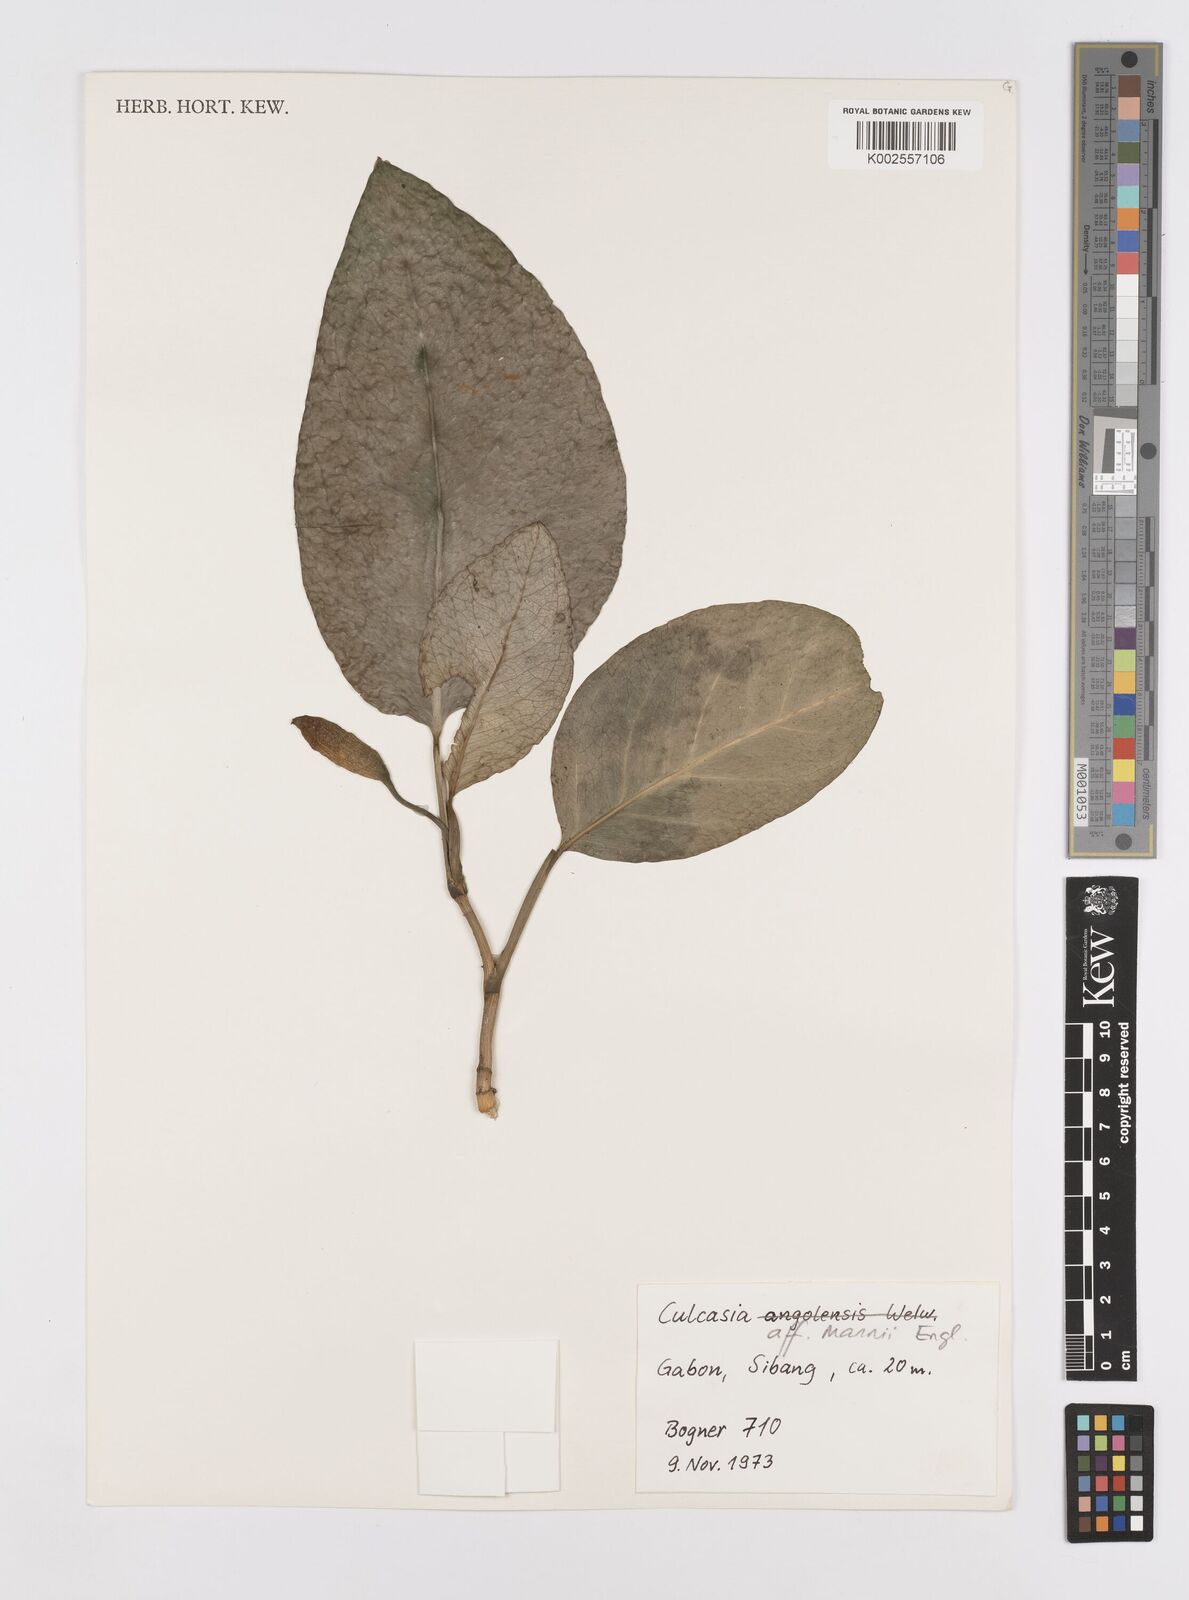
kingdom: Plantae
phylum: Tracheophyta
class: Liliopsida
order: Alismatales
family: Araceae
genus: Culcasia
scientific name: Culcasia mannii
